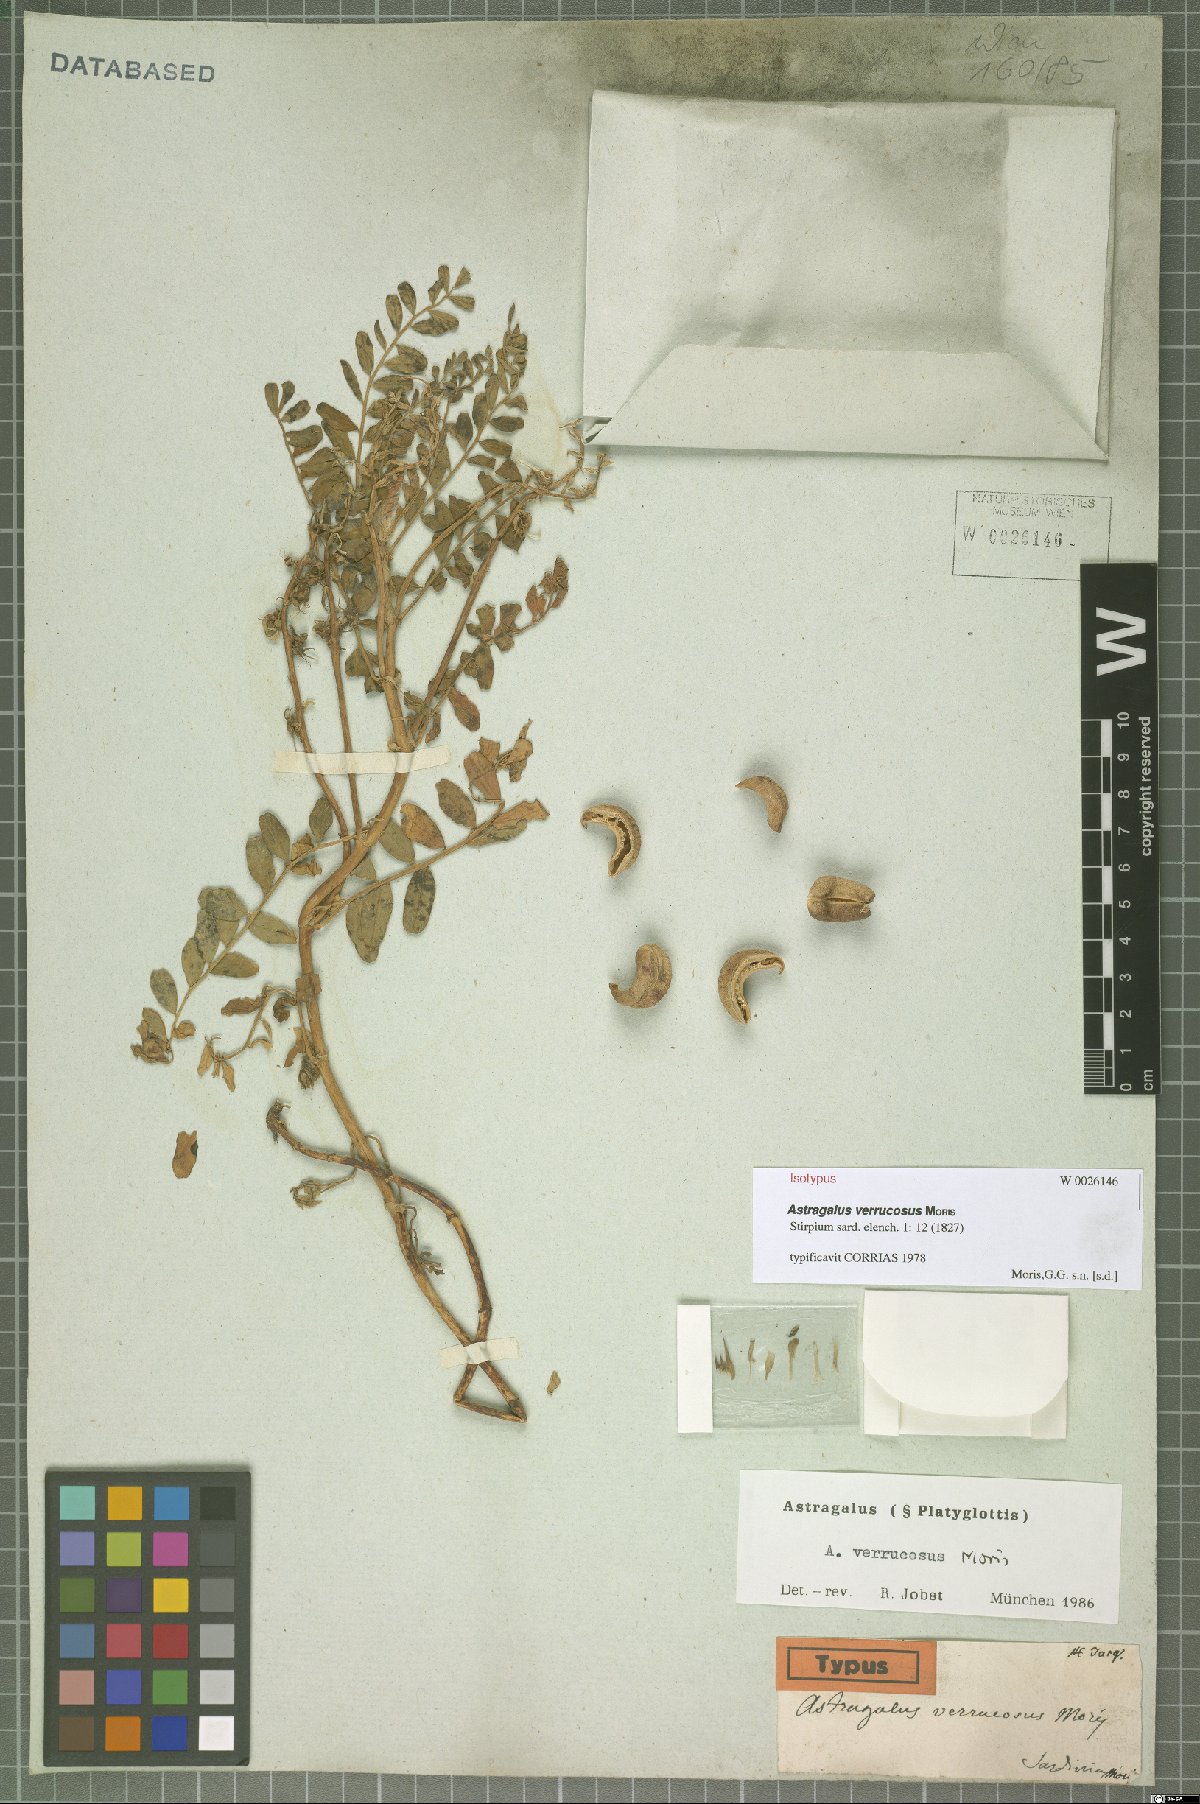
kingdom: Plantae
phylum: Tracheophyta
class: Magnoliopsida
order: Fabales
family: Fabaceae
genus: Astragalus
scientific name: Astragalus verrucosus
